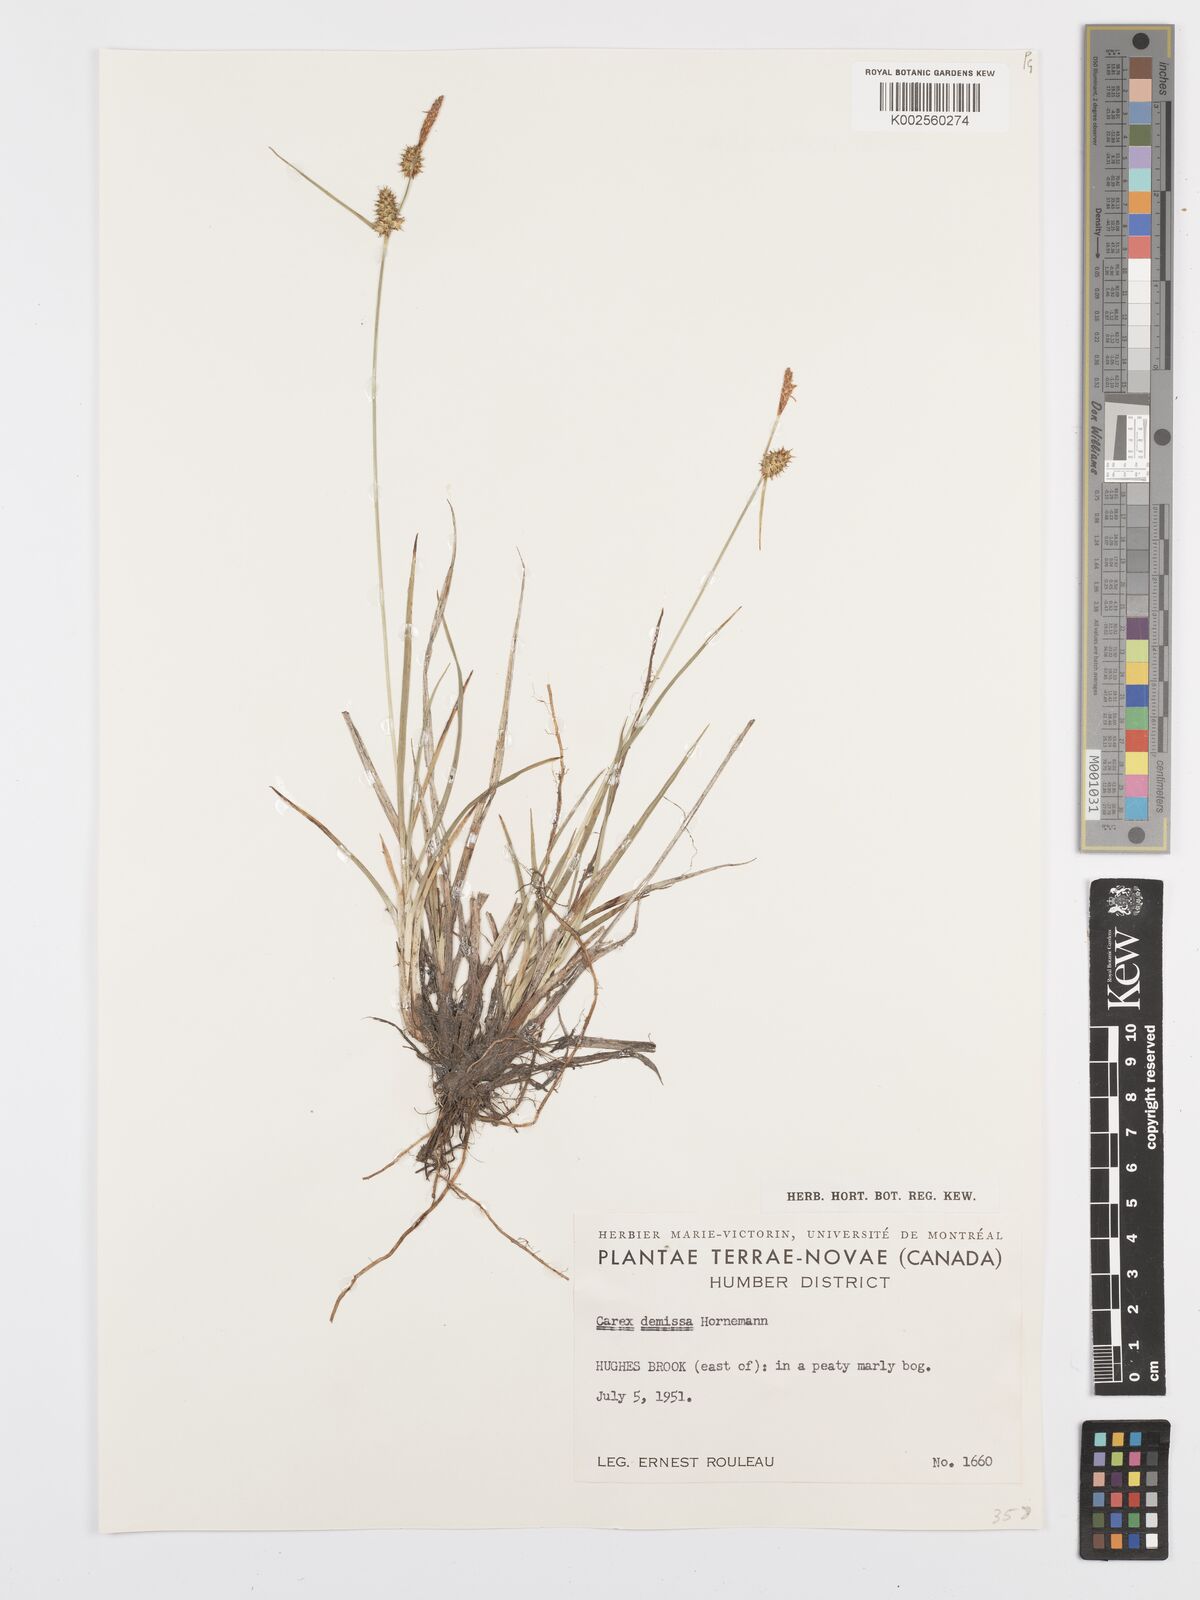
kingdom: Plantae
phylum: Tracheophyta
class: Liliopsida
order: Poales
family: Cyperaceae
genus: Carex
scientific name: Carex flava
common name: Large yellow-sedge
